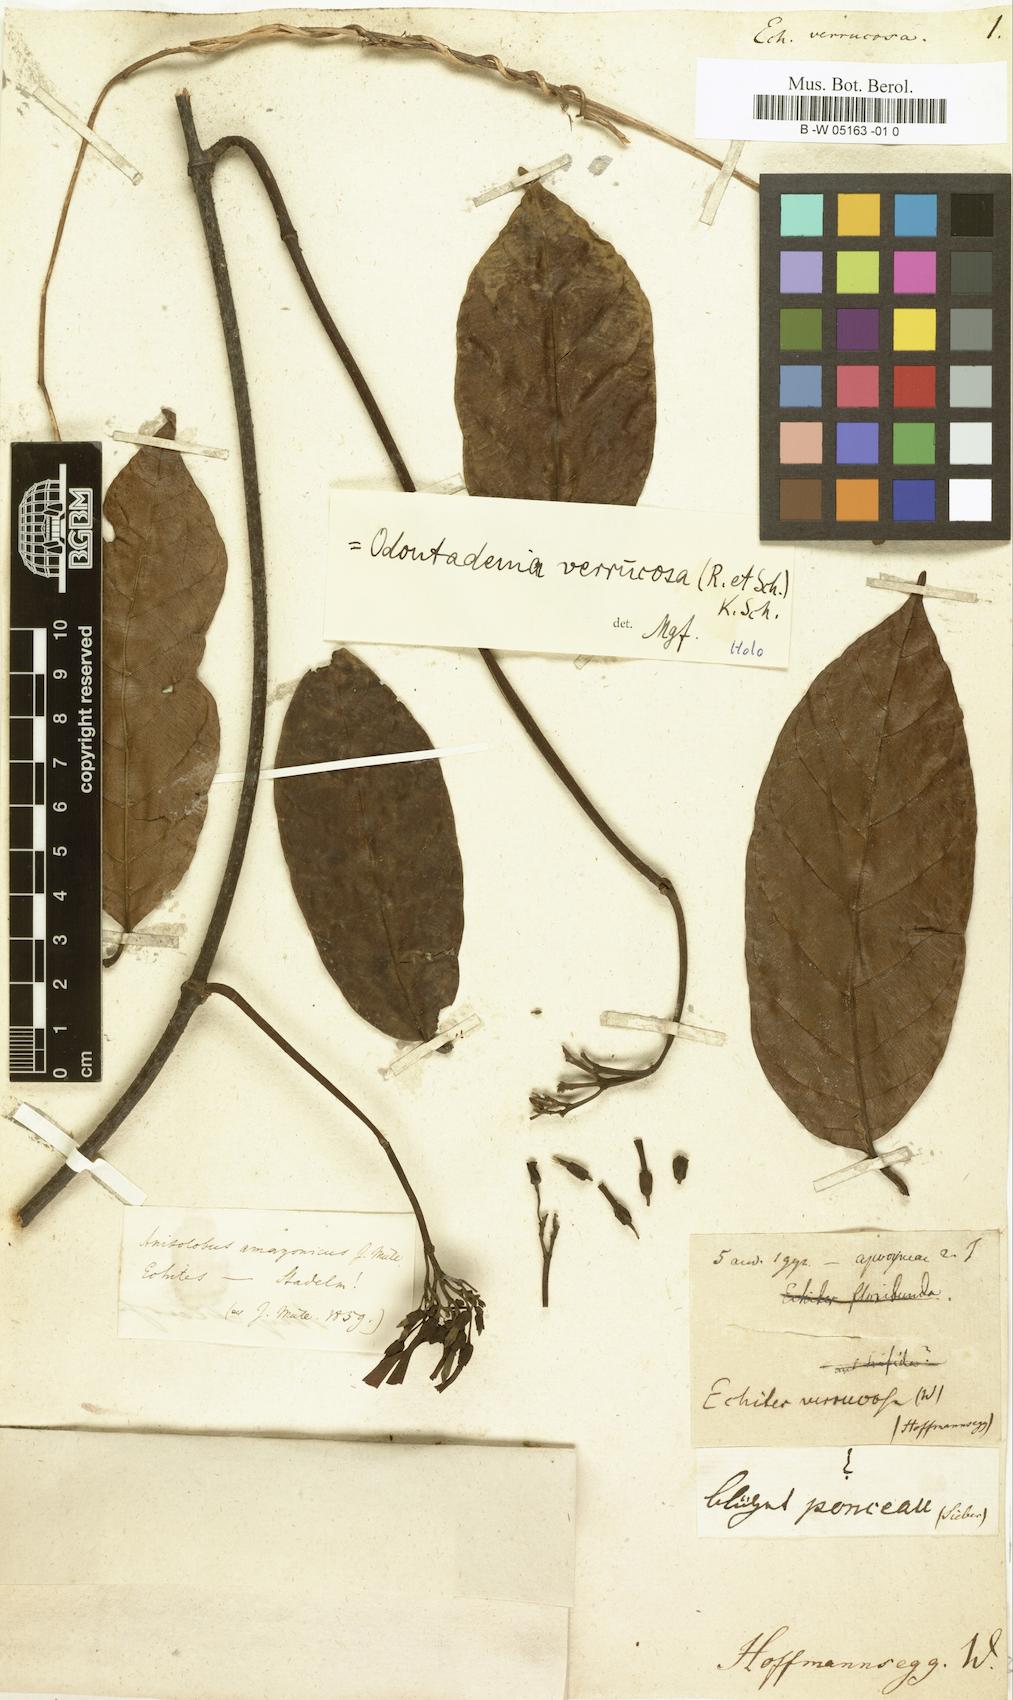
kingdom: Plantae
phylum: Tracheophyta
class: Magnoliopsida
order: Gentianales
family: Apocynaceae
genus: Odontadenia
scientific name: Odontadenia verrucosa
